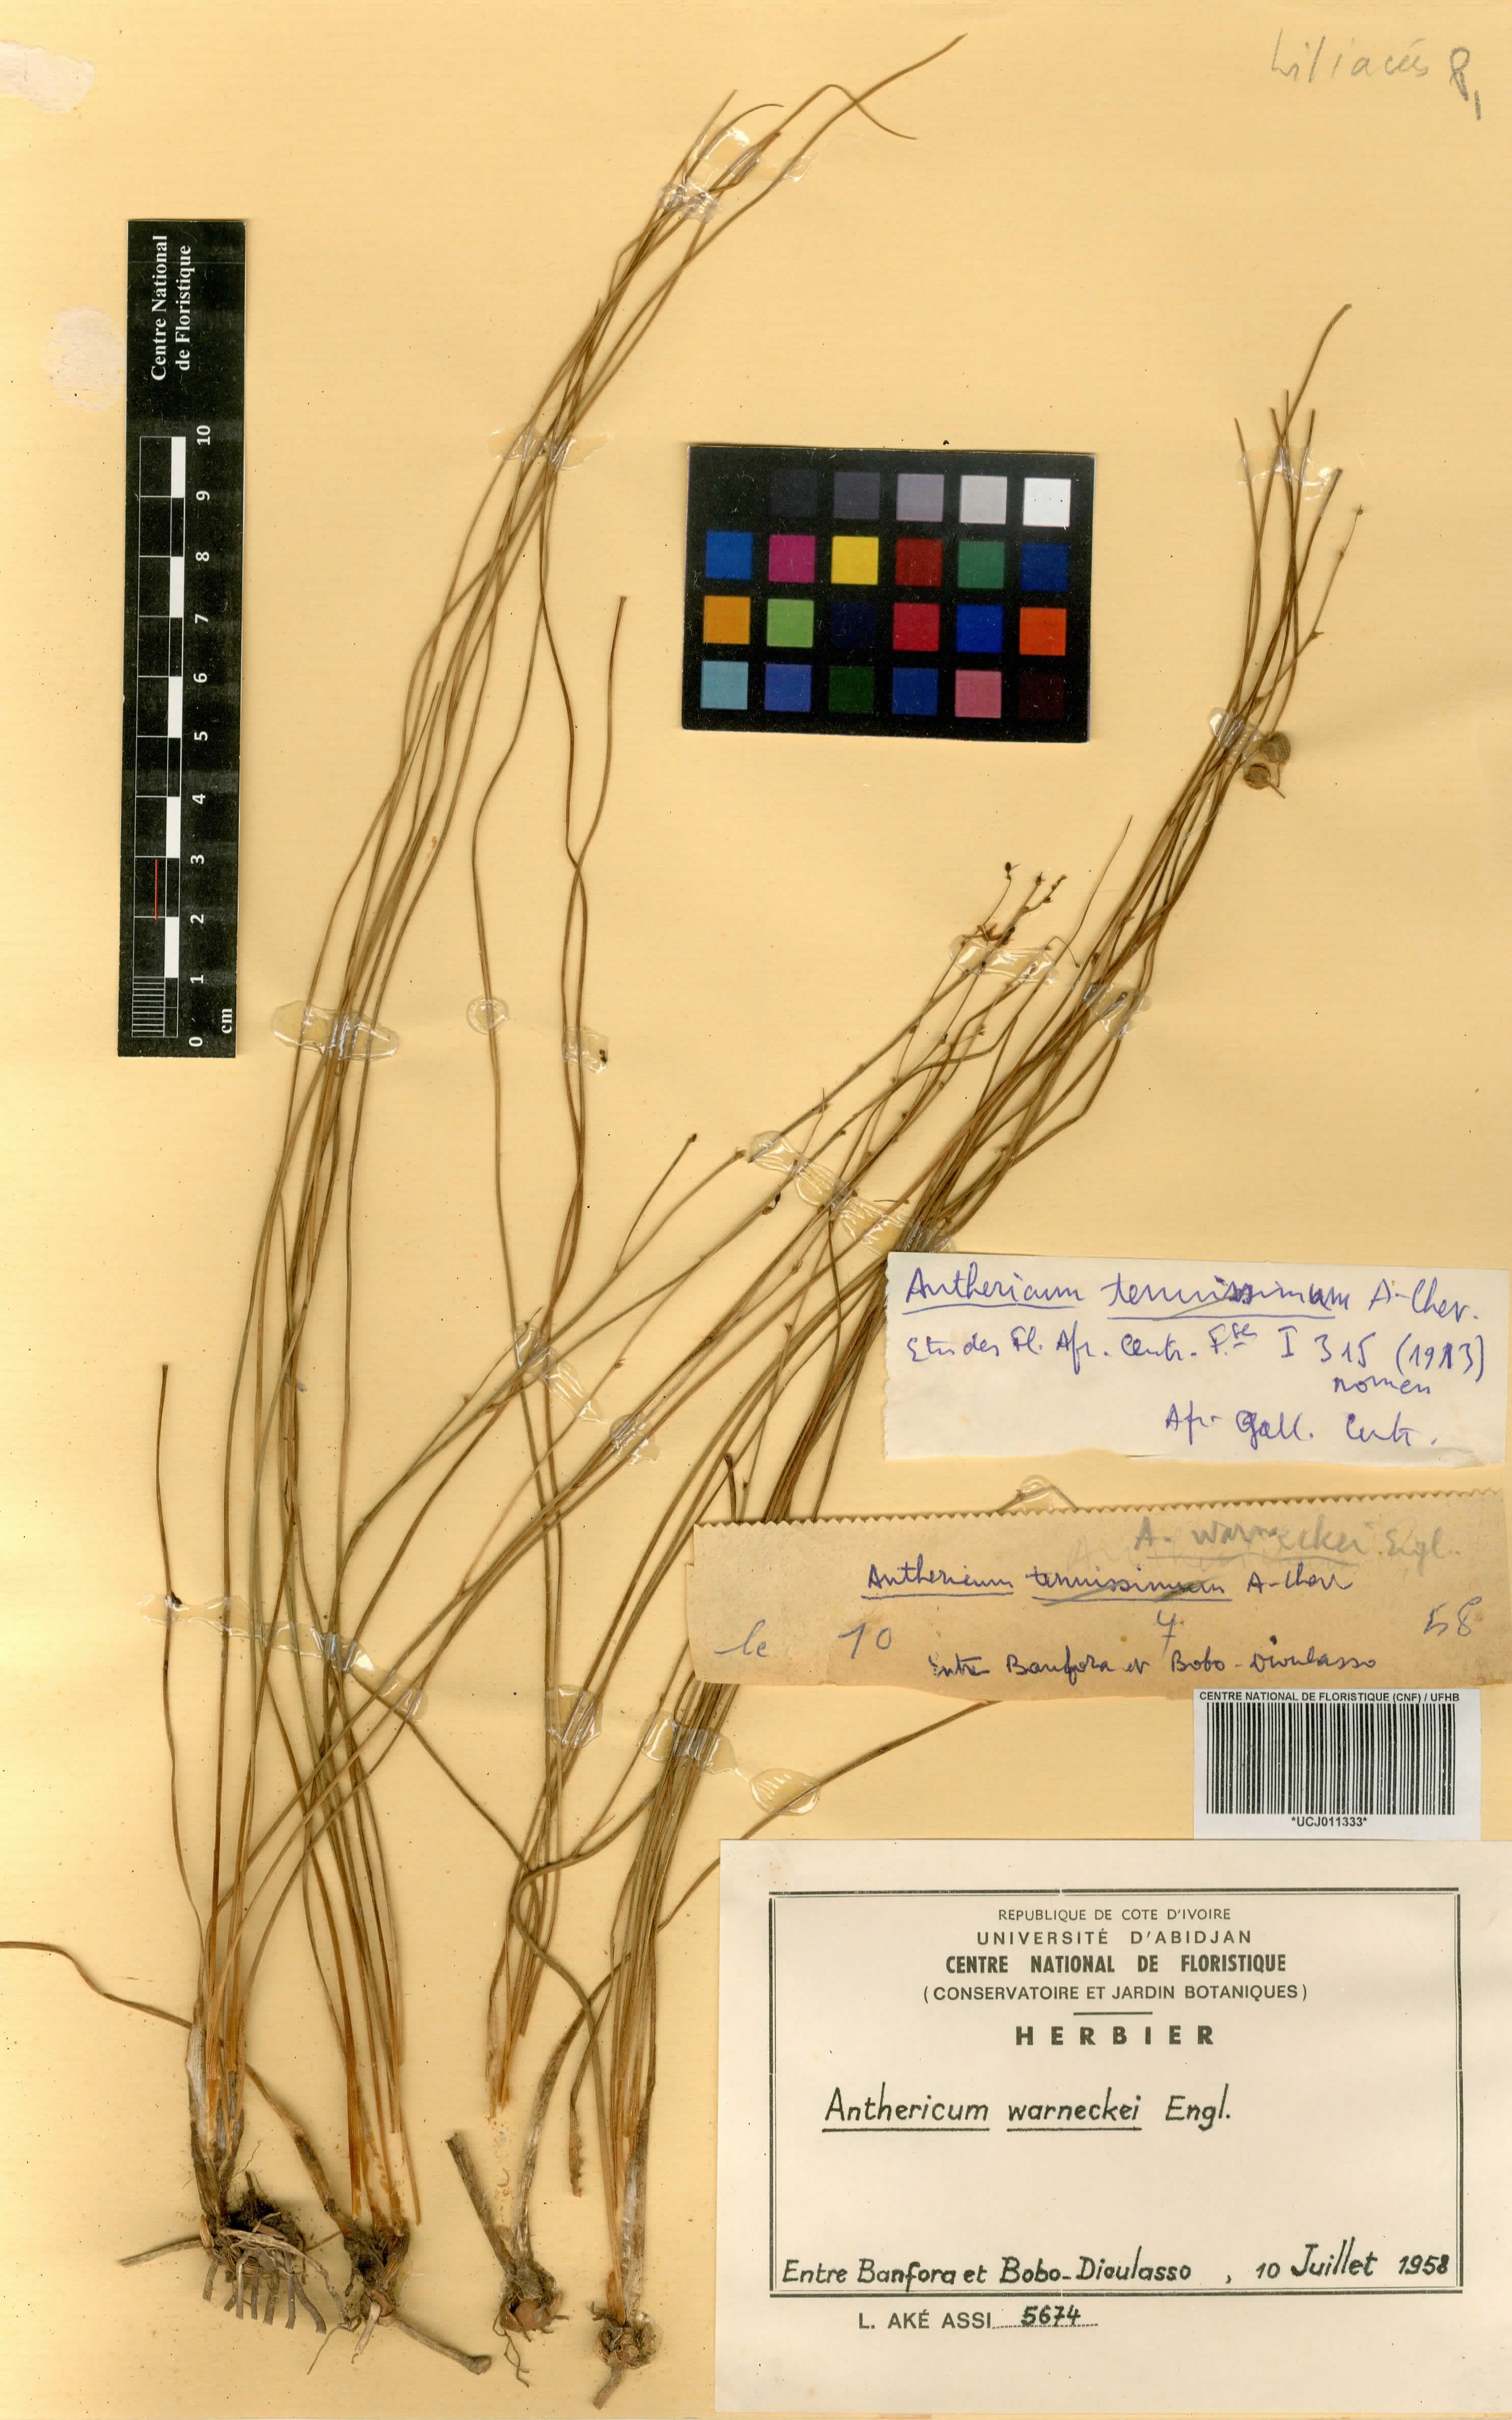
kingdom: Plantae
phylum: Tracheophyta
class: Liliopsida
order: Asparagales
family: Asparagaceae
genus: Chlorophytum
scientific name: Chlorophytum warneckei
